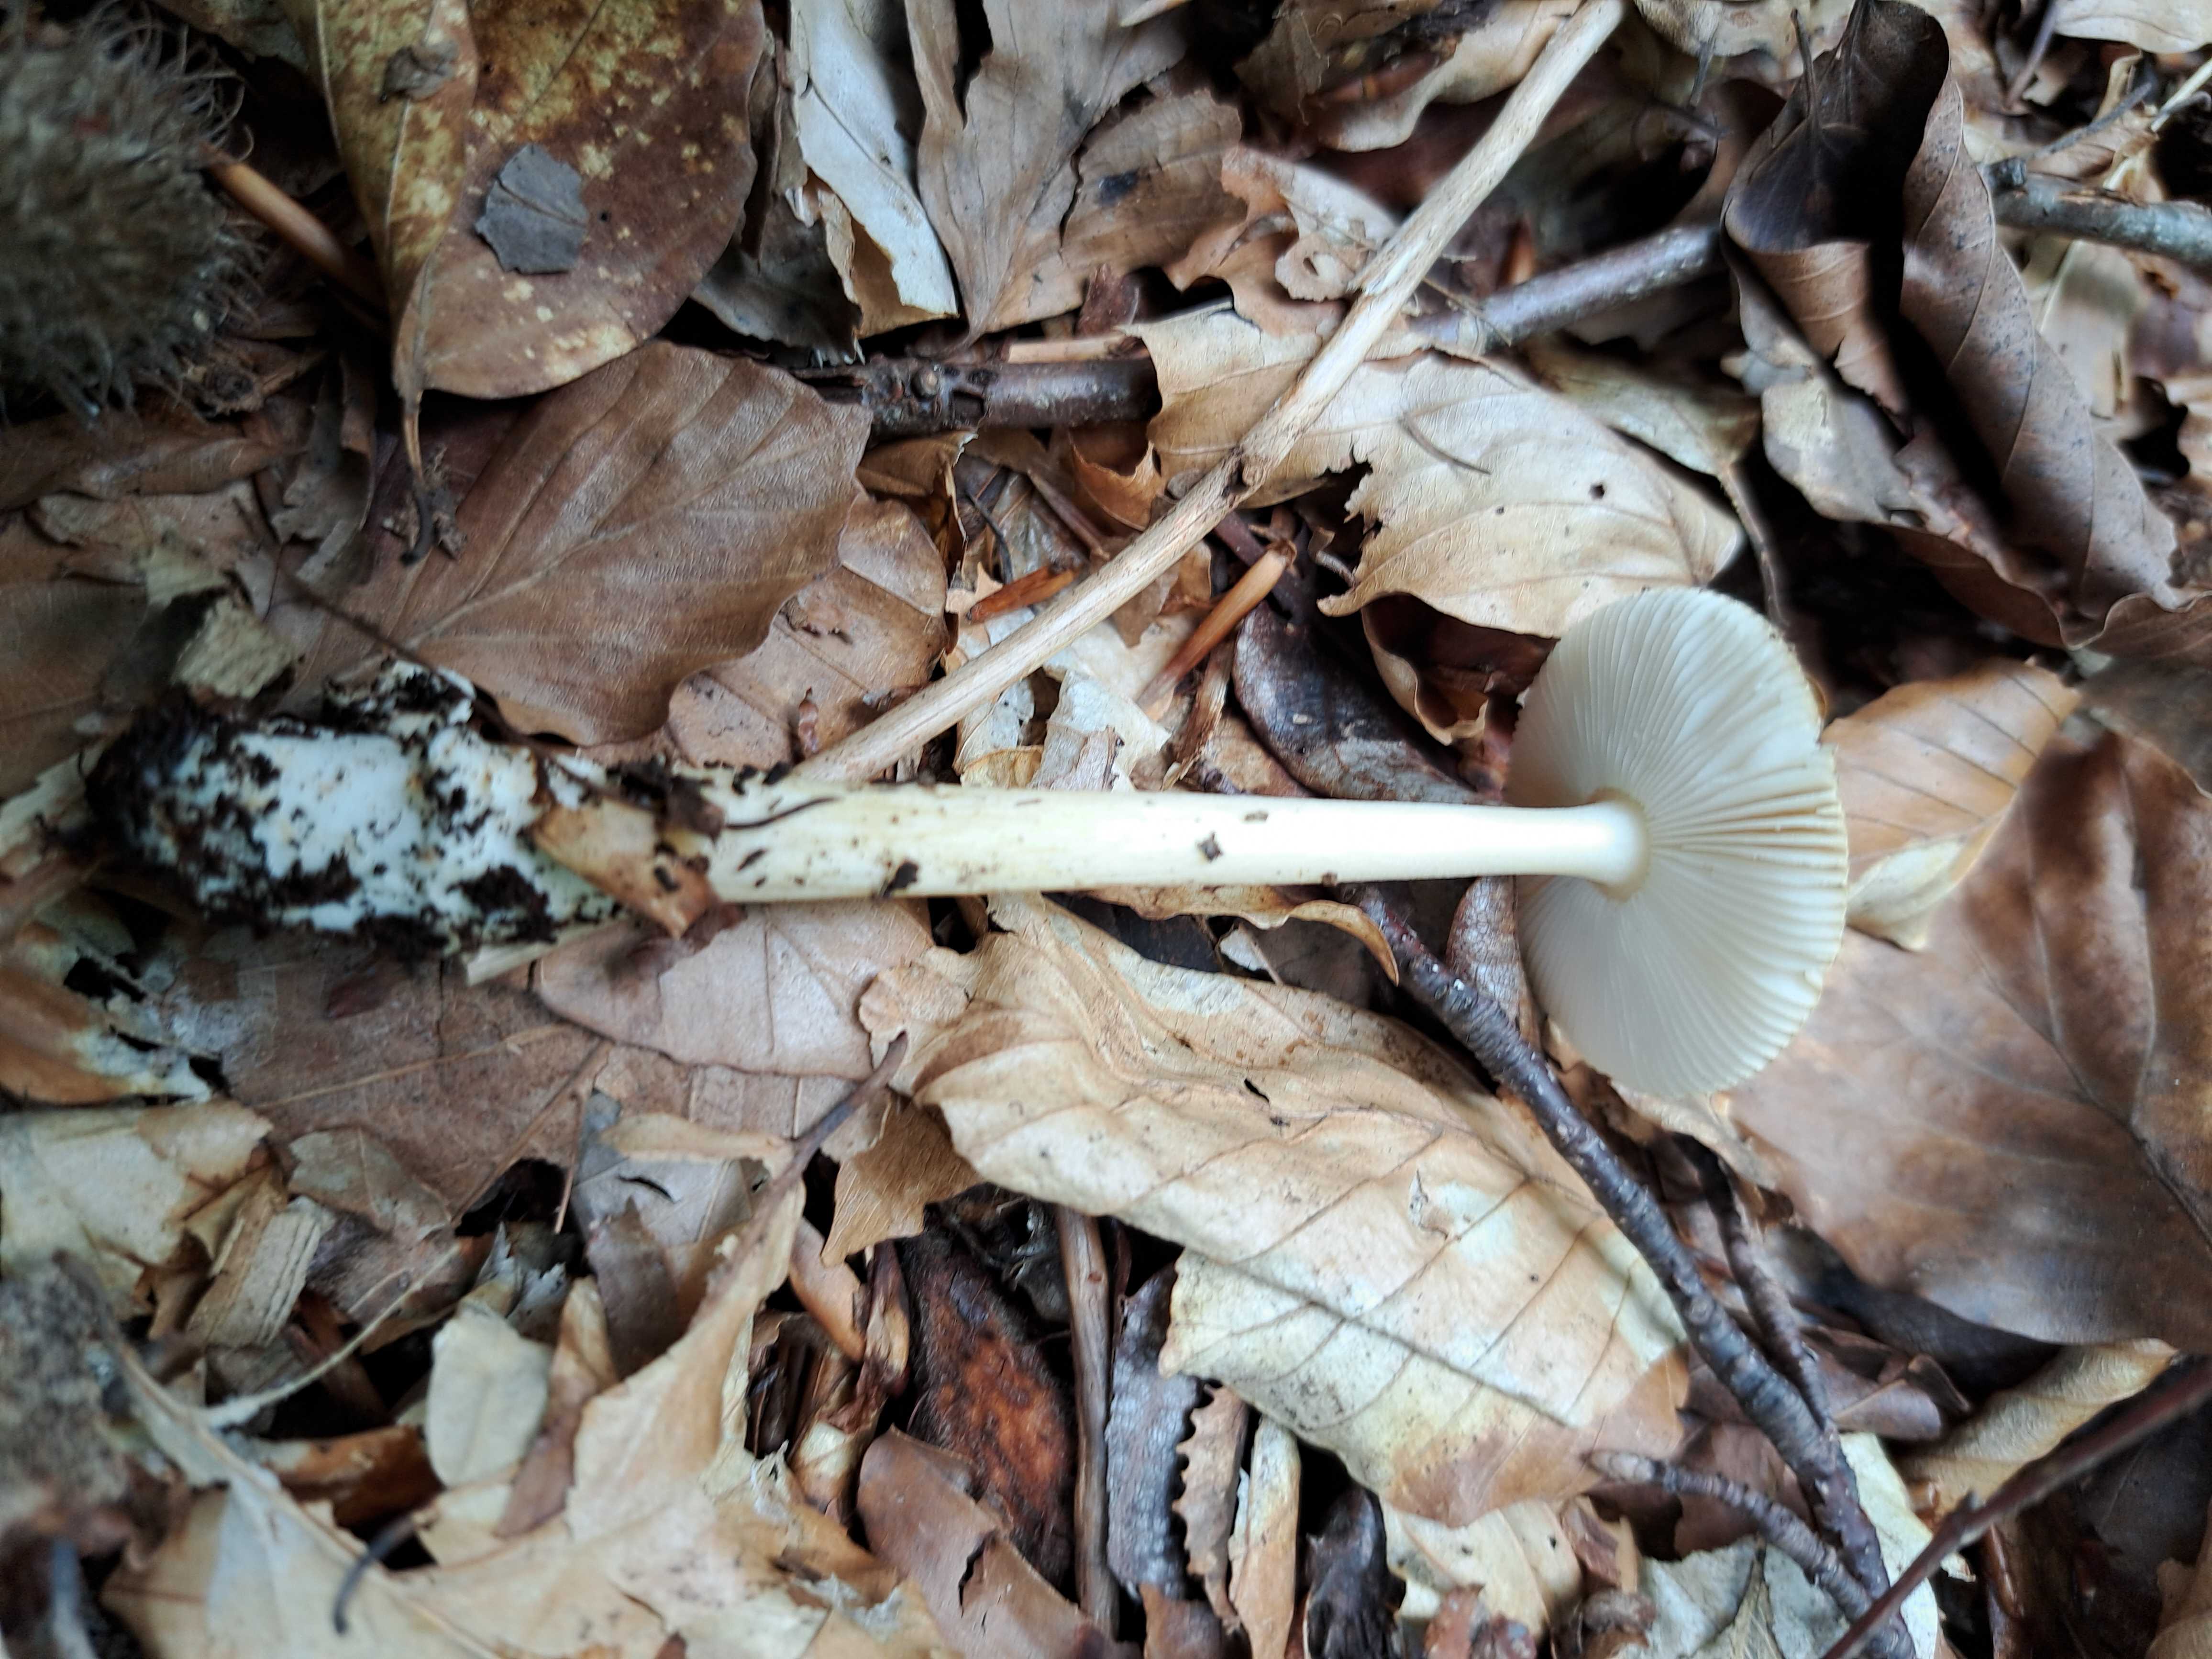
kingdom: Fungi
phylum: Basidiomycota
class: Agaricomycetes
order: Agaricales
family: Amanitaceae
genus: Amanita
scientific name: Amanita fulva
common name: brun kam-fluesvamp
